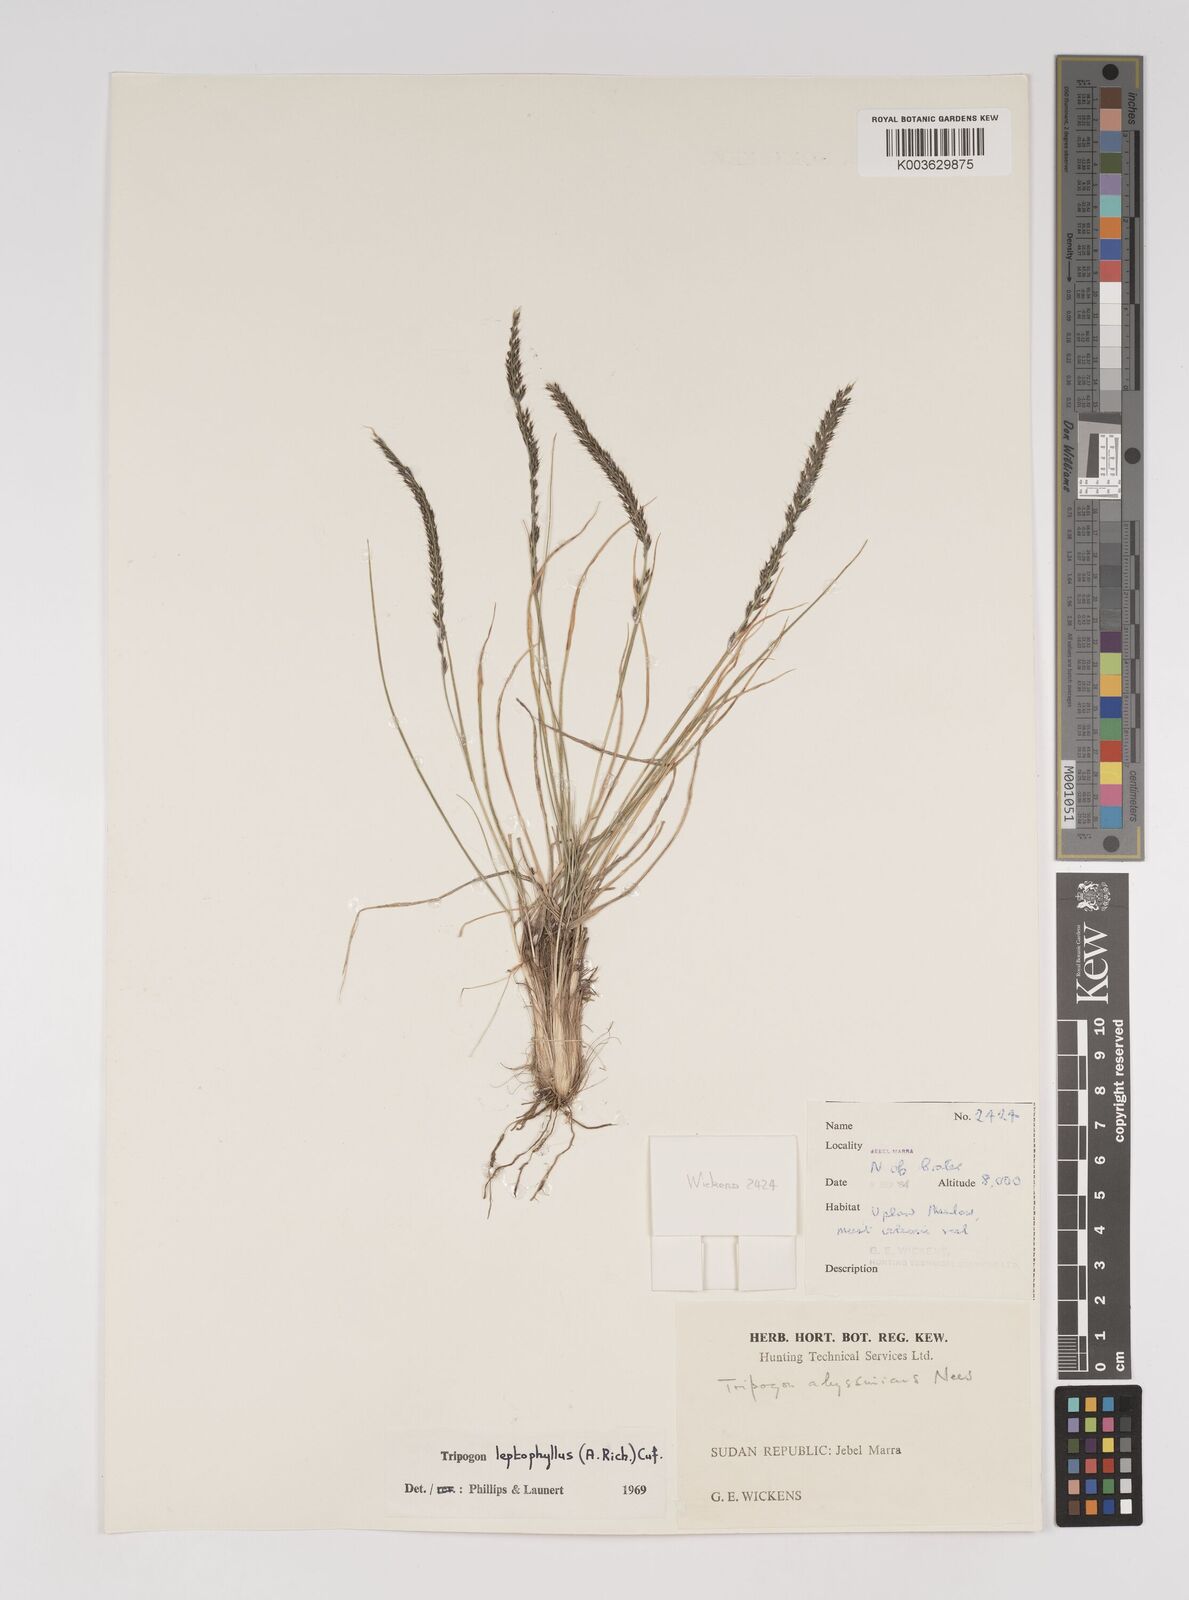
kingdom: Plantae
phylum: Tracheophyta
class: Liliopsida
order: Poales
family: Poaceae
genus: Tripogon
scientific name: Tripogon leptophyllus
